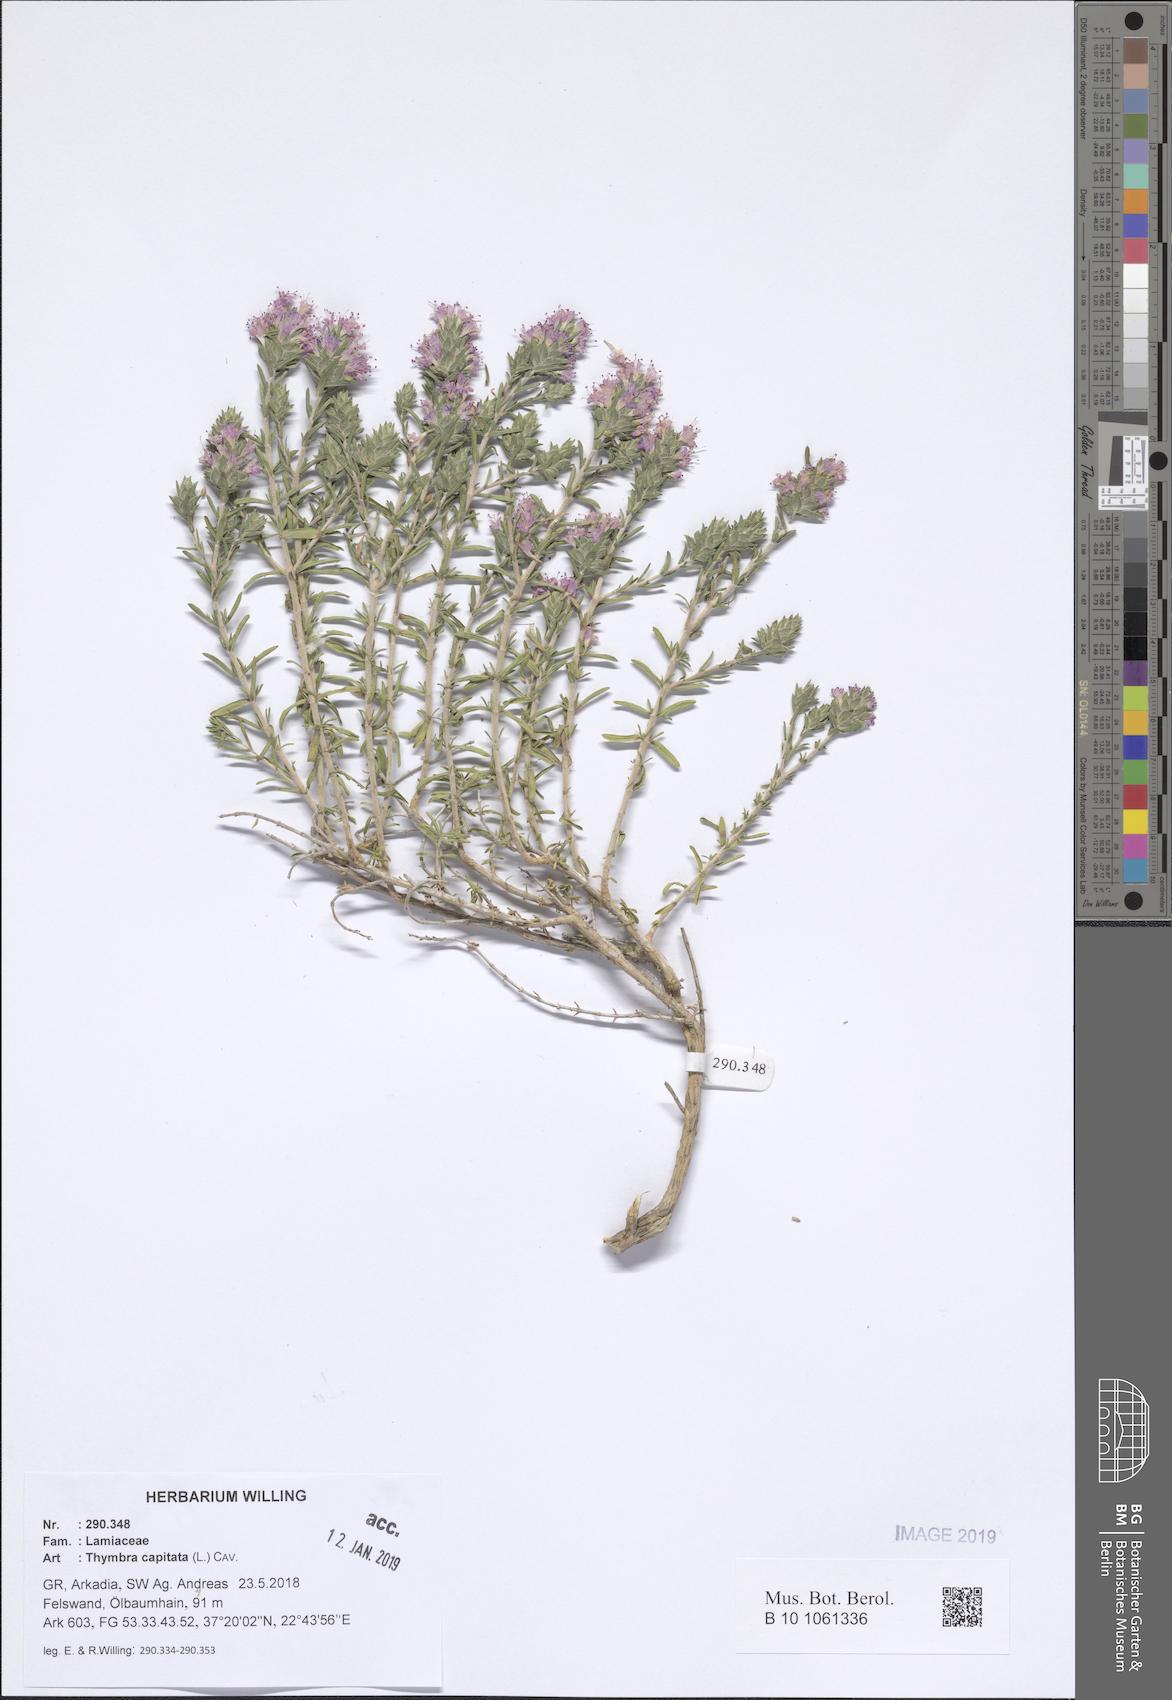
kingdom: Plantae
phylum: Tracheophyta
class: Magnoliopsida
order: Lamiales
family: Lamiaceae
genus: Thymbra
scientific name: Thymbra capitata
